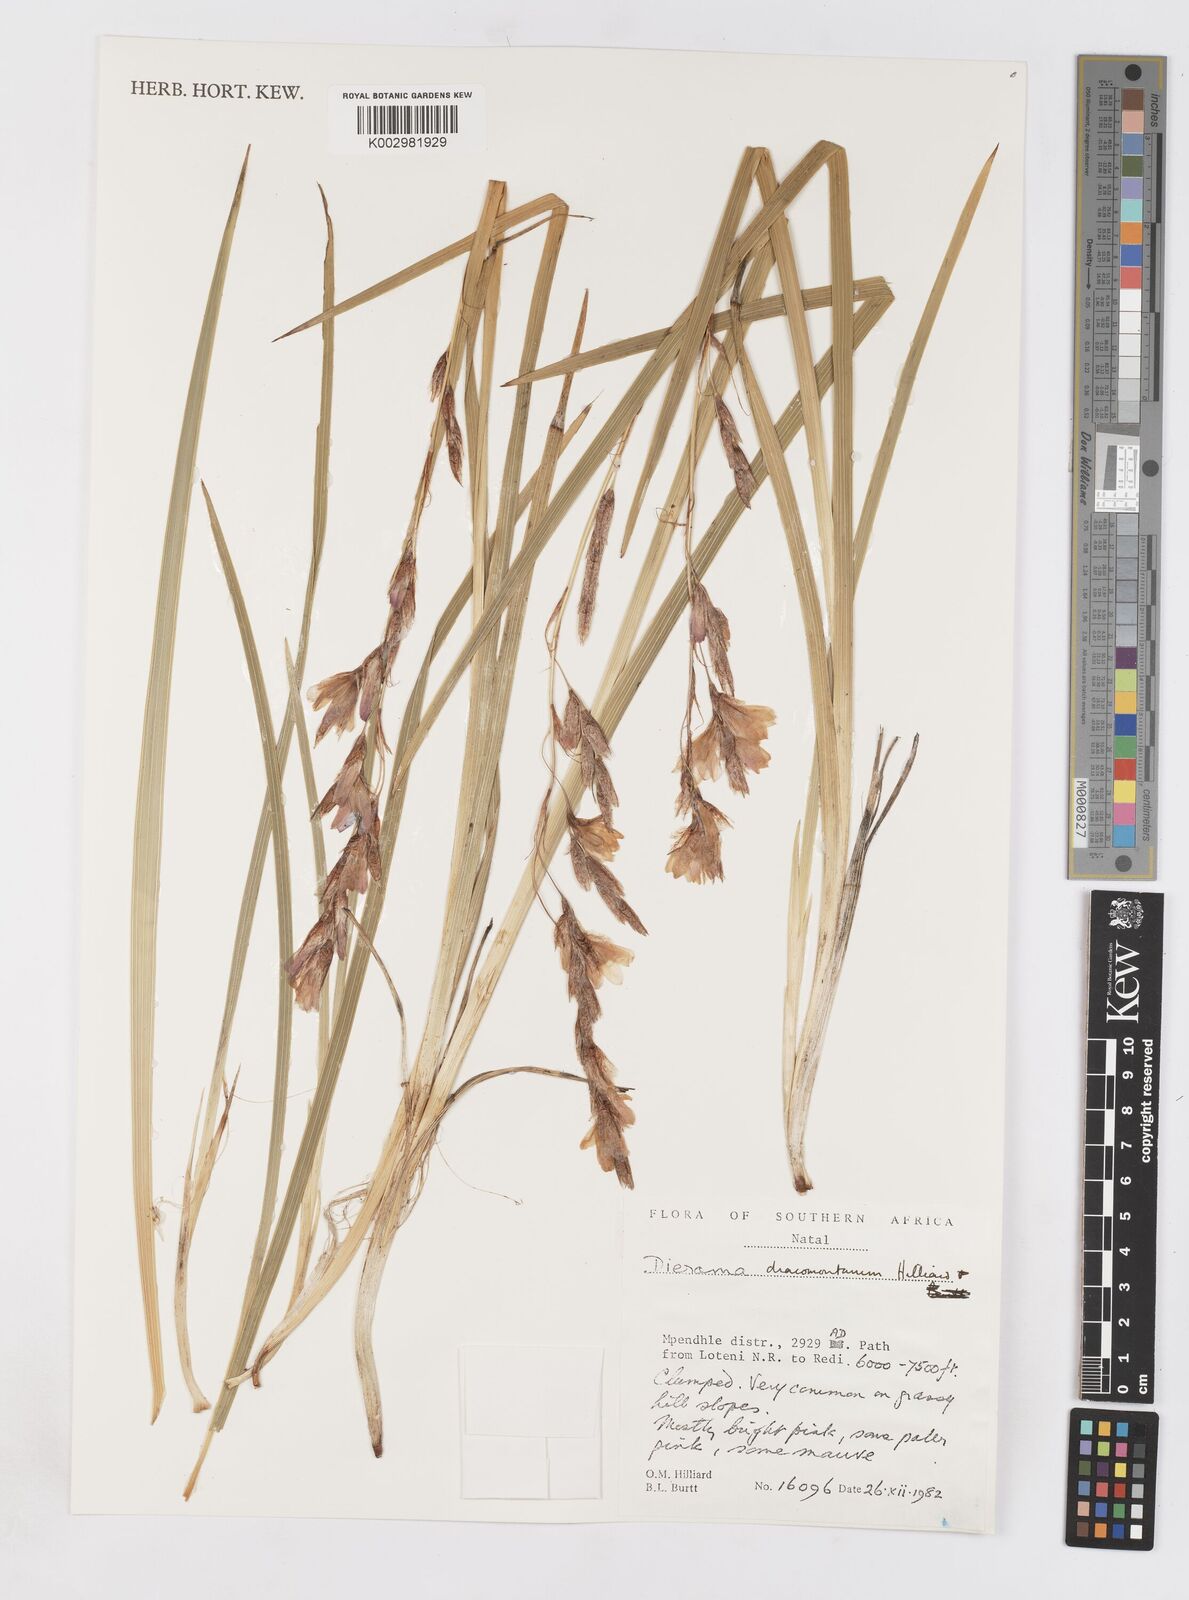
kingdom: Plantae
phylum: Tracheophyta
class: Liliopsida
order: Asparagales
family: Iridaceae
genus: Dierama
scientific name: Dierama dracomontanum
